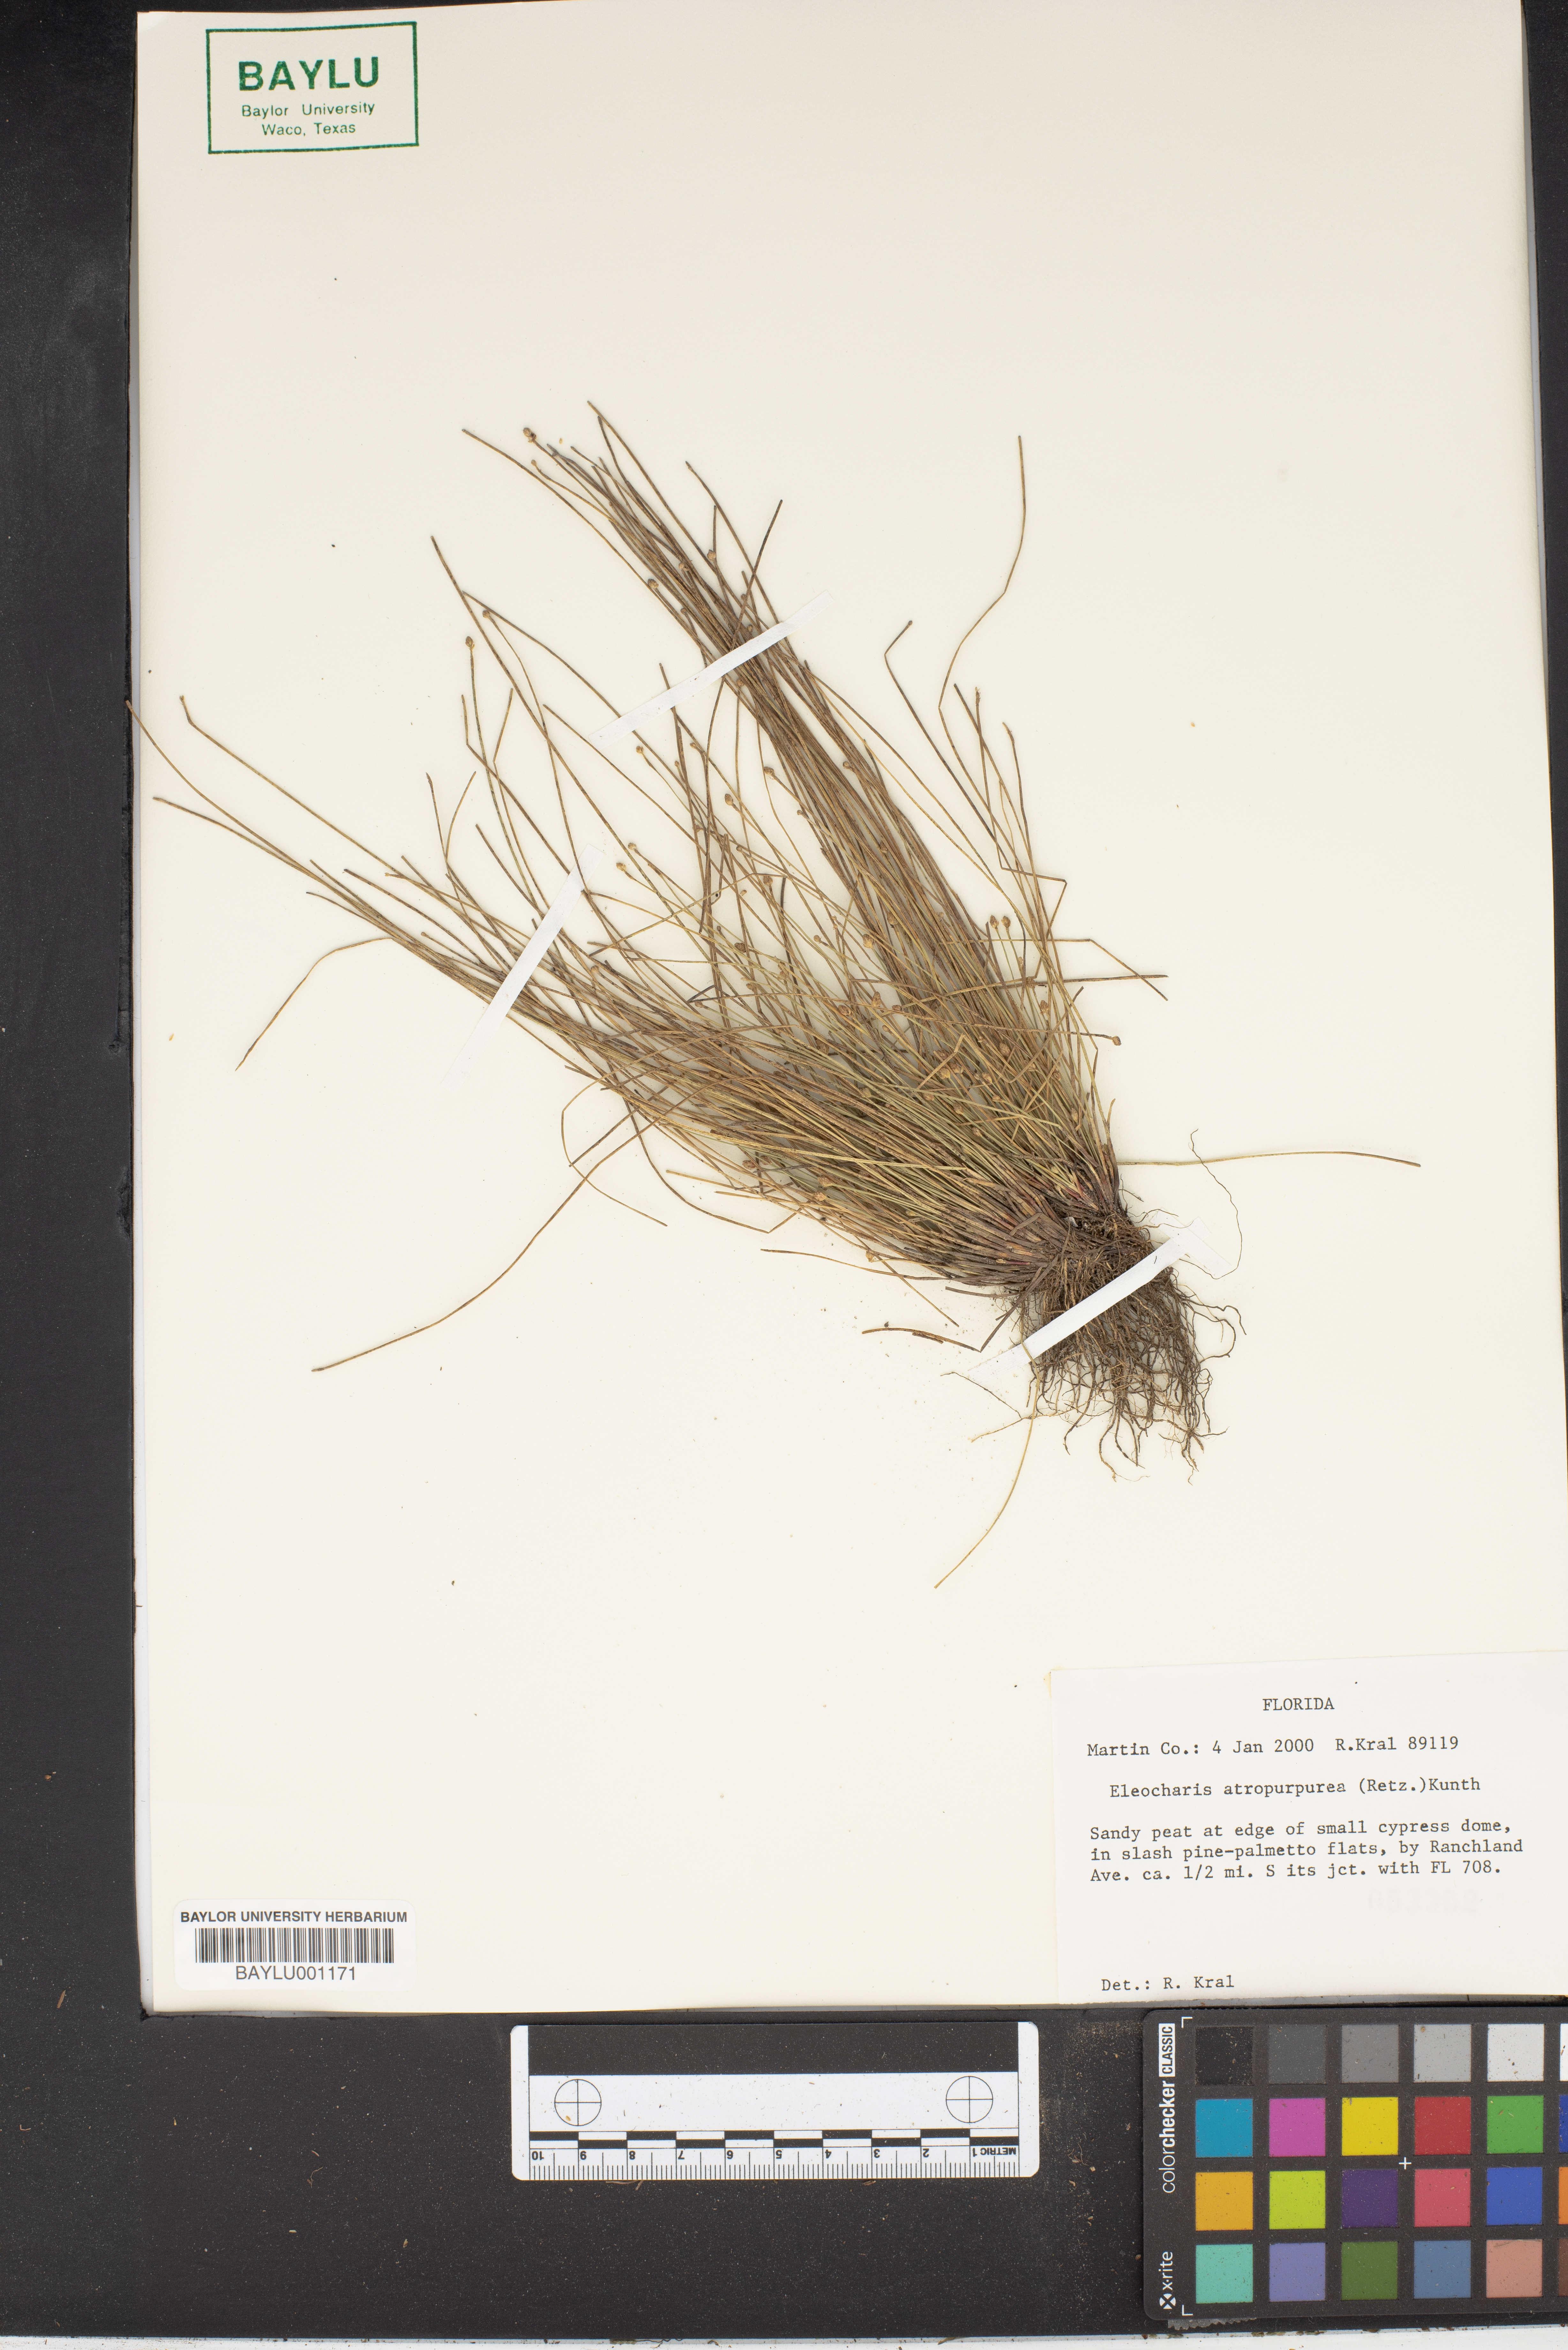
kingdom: Plantae
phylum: Tracheophyta
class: Liliopsida
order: Poales
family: Cyperaceae
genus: Eleocharis
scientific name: Eleocharis atropurpurea
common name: Purple spikerush
